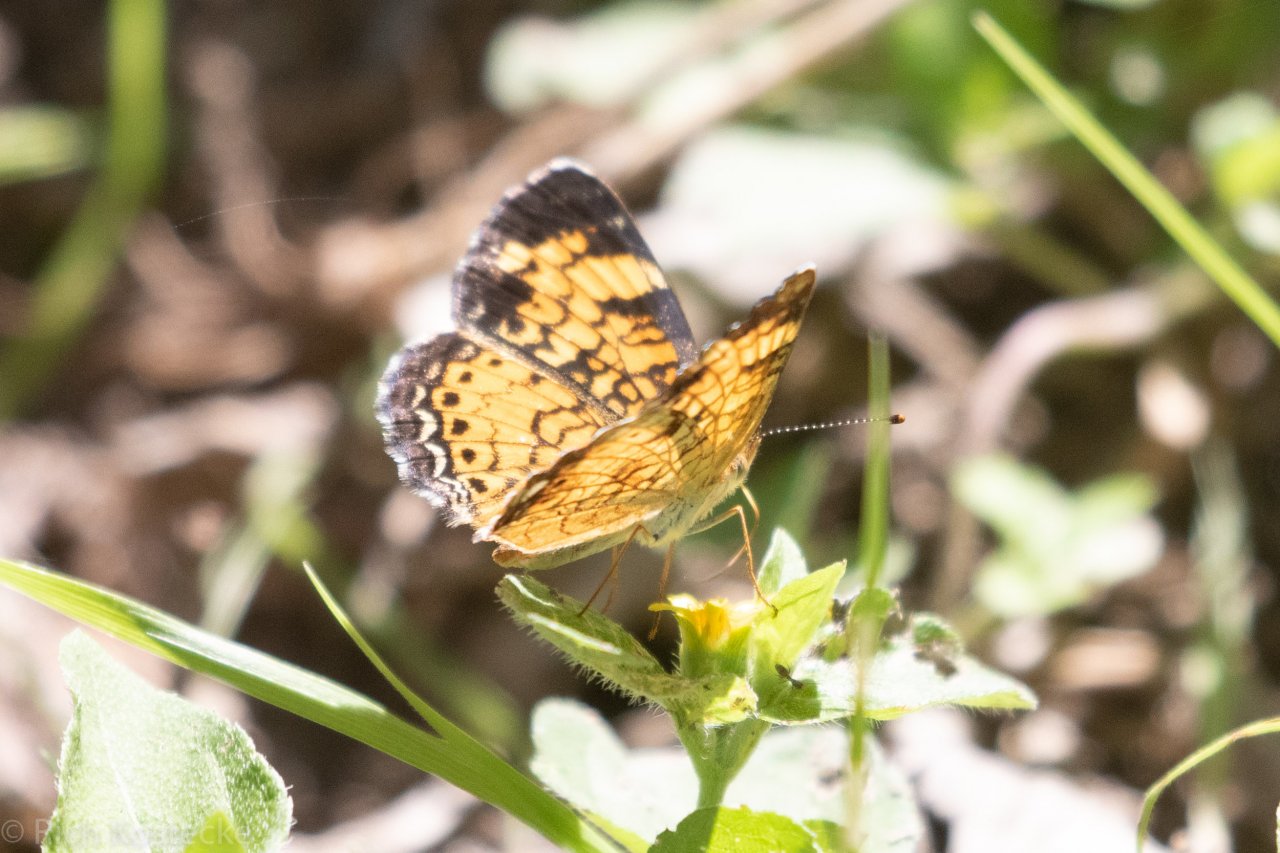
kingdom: Animalia
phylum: Arthropoda
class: Insecta
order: Lepidoptera
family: Nymphalidae
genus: Phyciodes
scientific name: Phyciodes tharos
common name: Pearl Crescent
